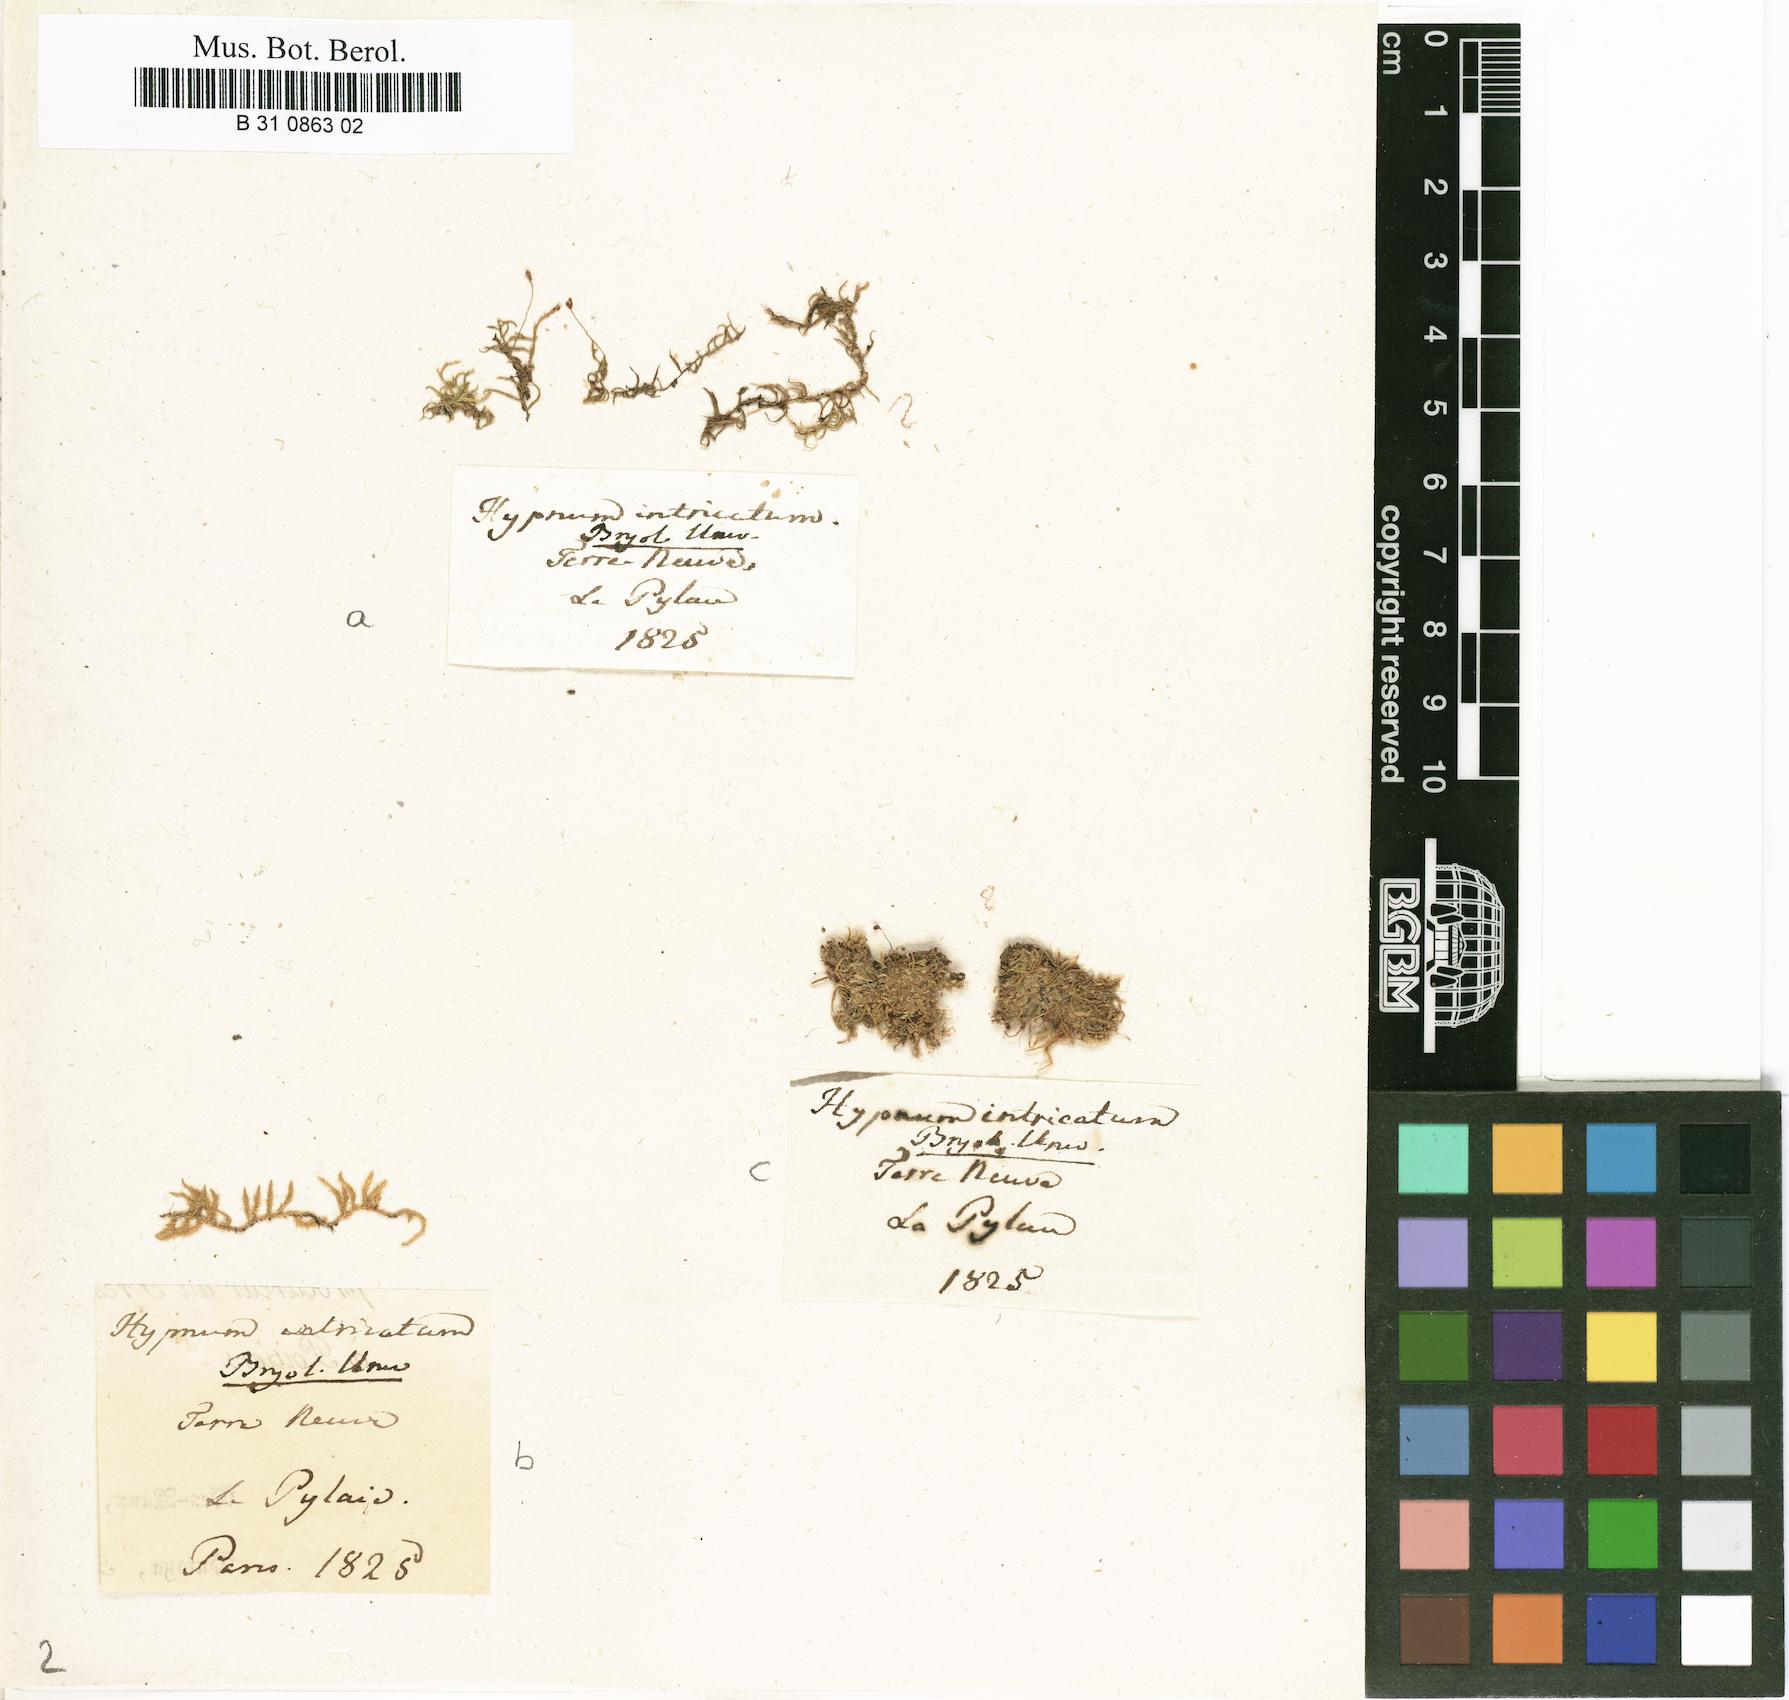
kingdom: Plantae
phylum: Bryophyta
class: Bryopsida
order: Hypnales
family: Brachytheciaceae
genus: Brachytheciastrum
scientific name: Brachytheciastrum velutinum
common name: Velvet feather-moss
